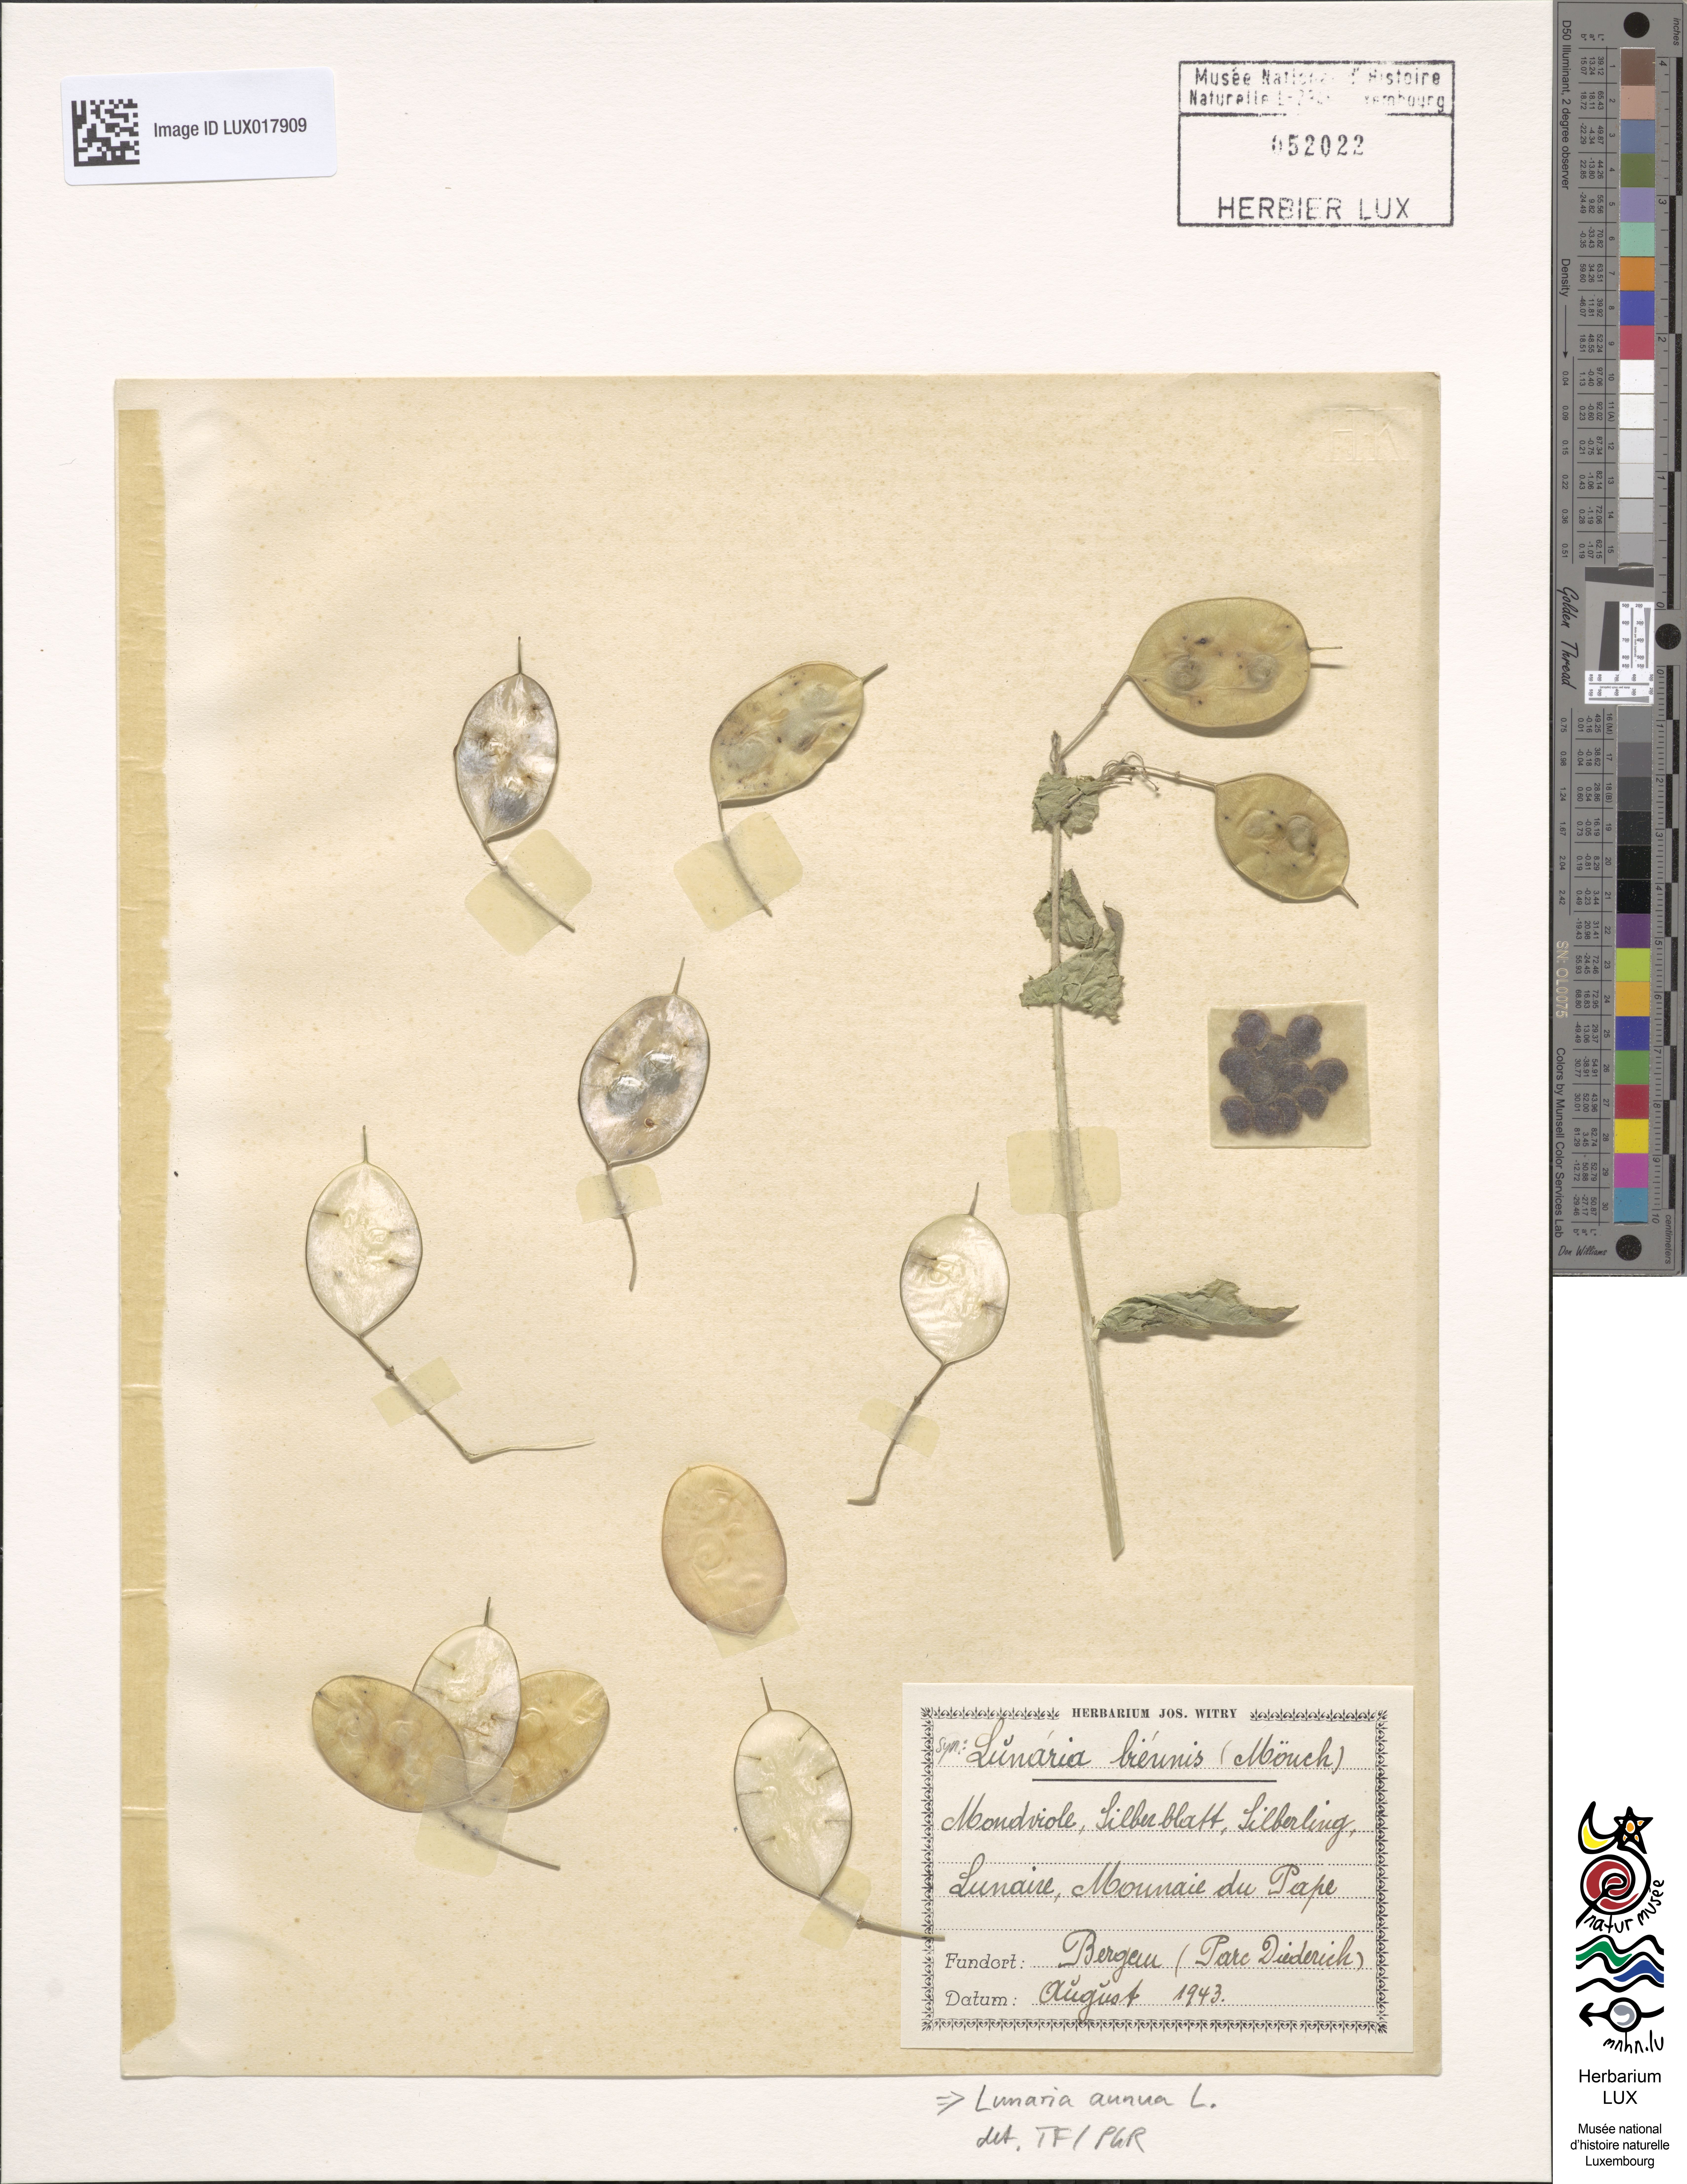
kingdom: Plantae
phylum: Tracheophyta
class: Magnoliopsida
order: Brassicales
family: Brassicaceae
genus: Lunaria
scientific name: Lunaria annua
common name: Honesty
